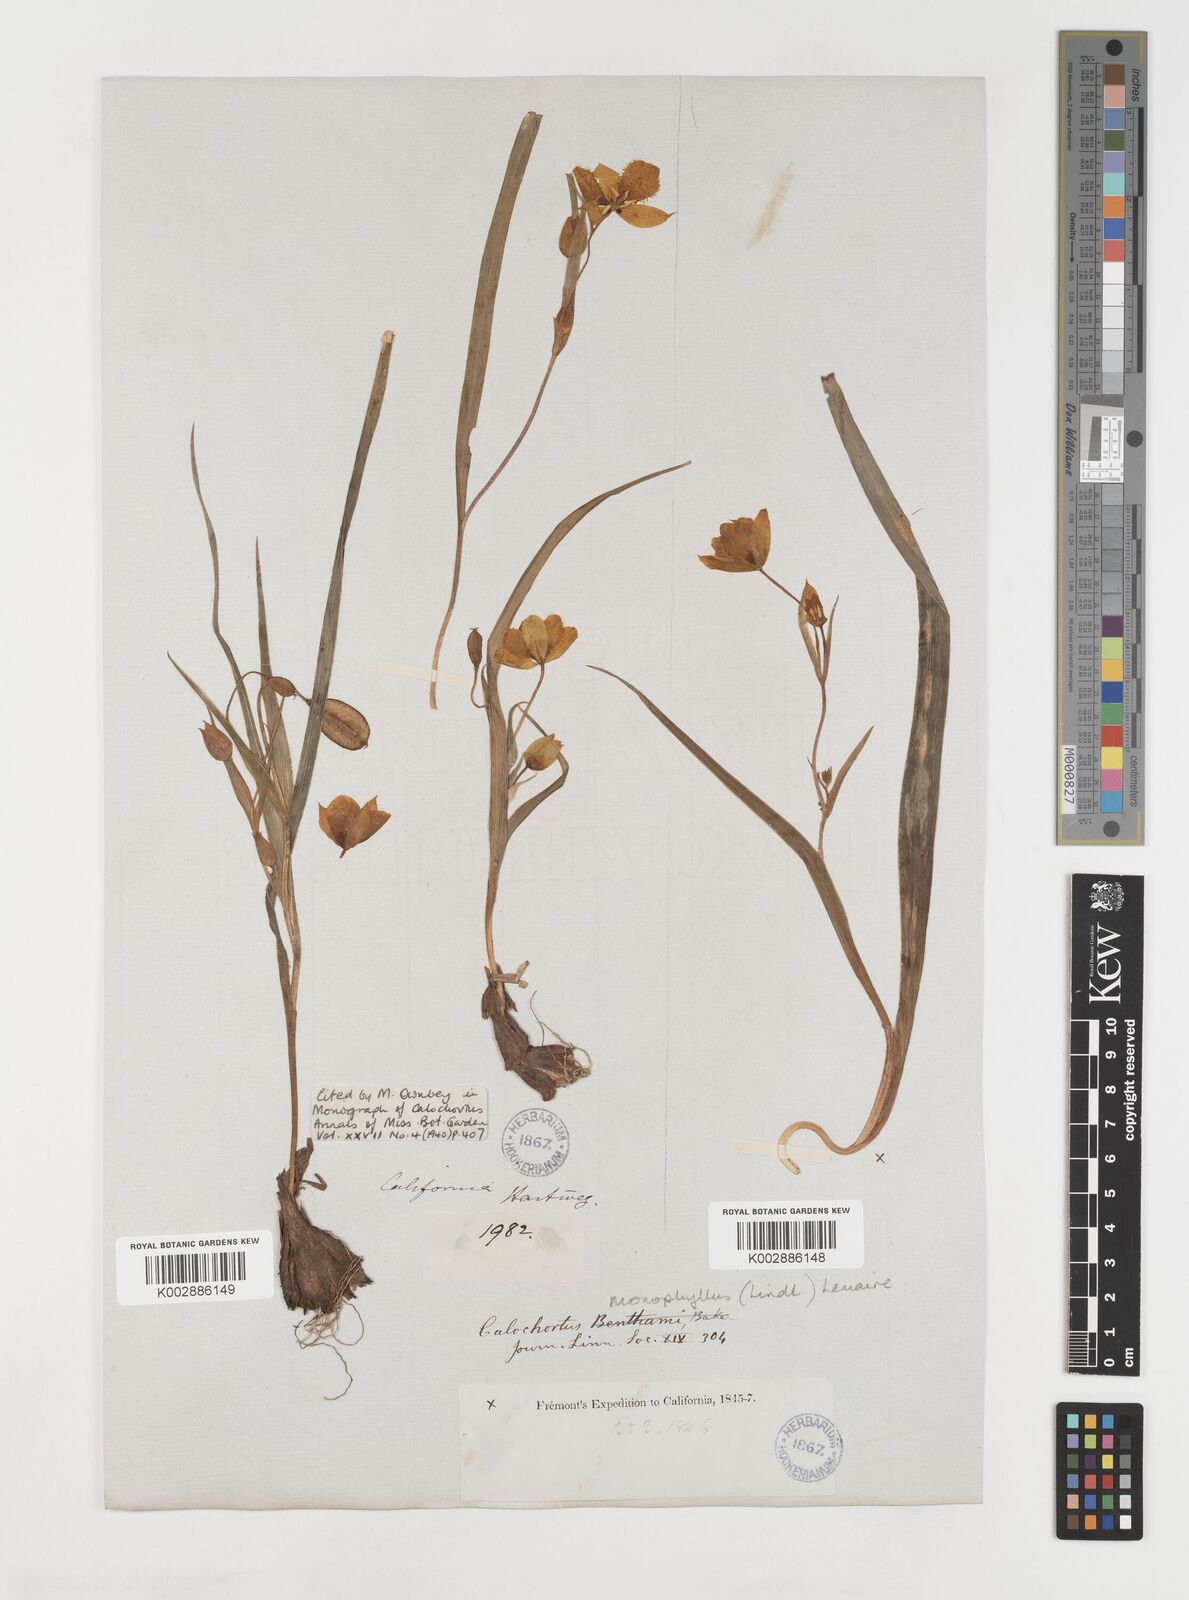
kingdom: Plantae
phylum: Tracheophyta
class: Liliopsida
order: Liliales
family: Liliaceae
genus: Calochortus
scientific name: Calochortus monophyllus
